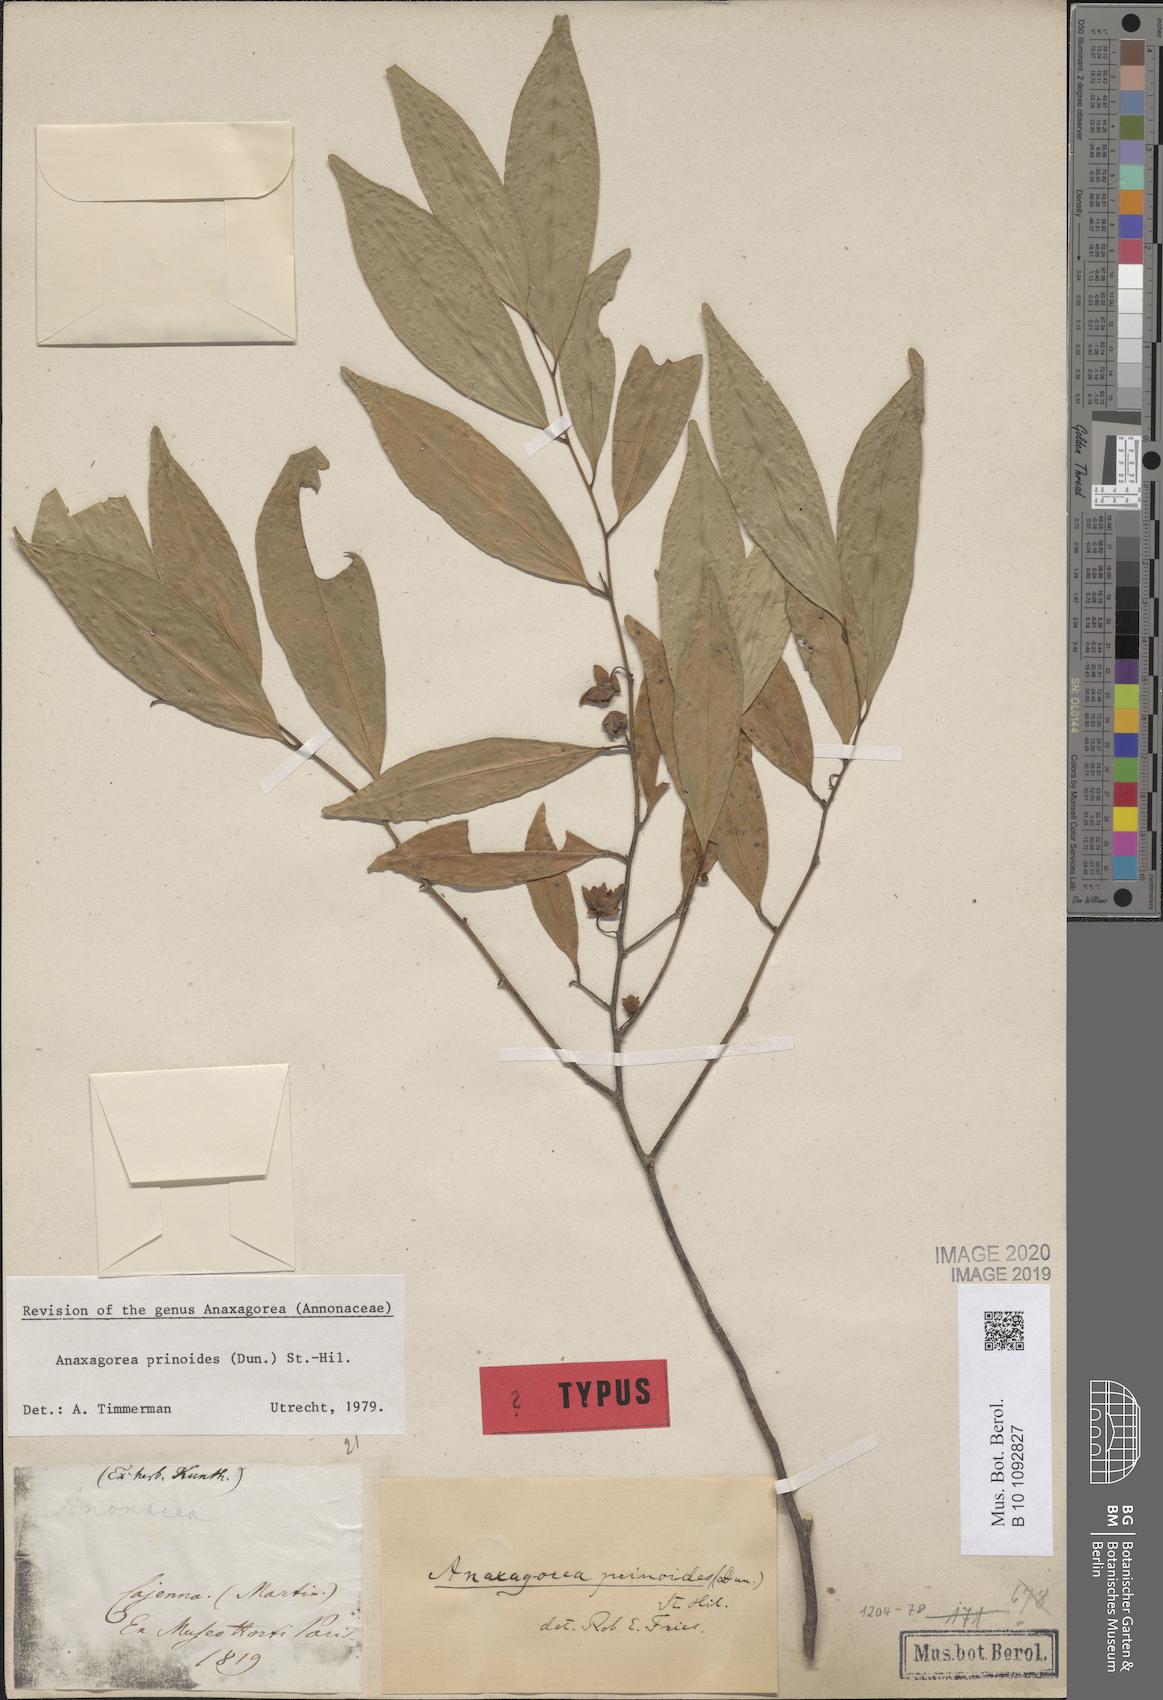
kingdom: Plantae
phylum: Tracheophyta
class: Magnoliopsida
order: Magnoliales
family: Annonaceae
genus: Anaxagorea
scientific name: Anaxagorea prinoides
